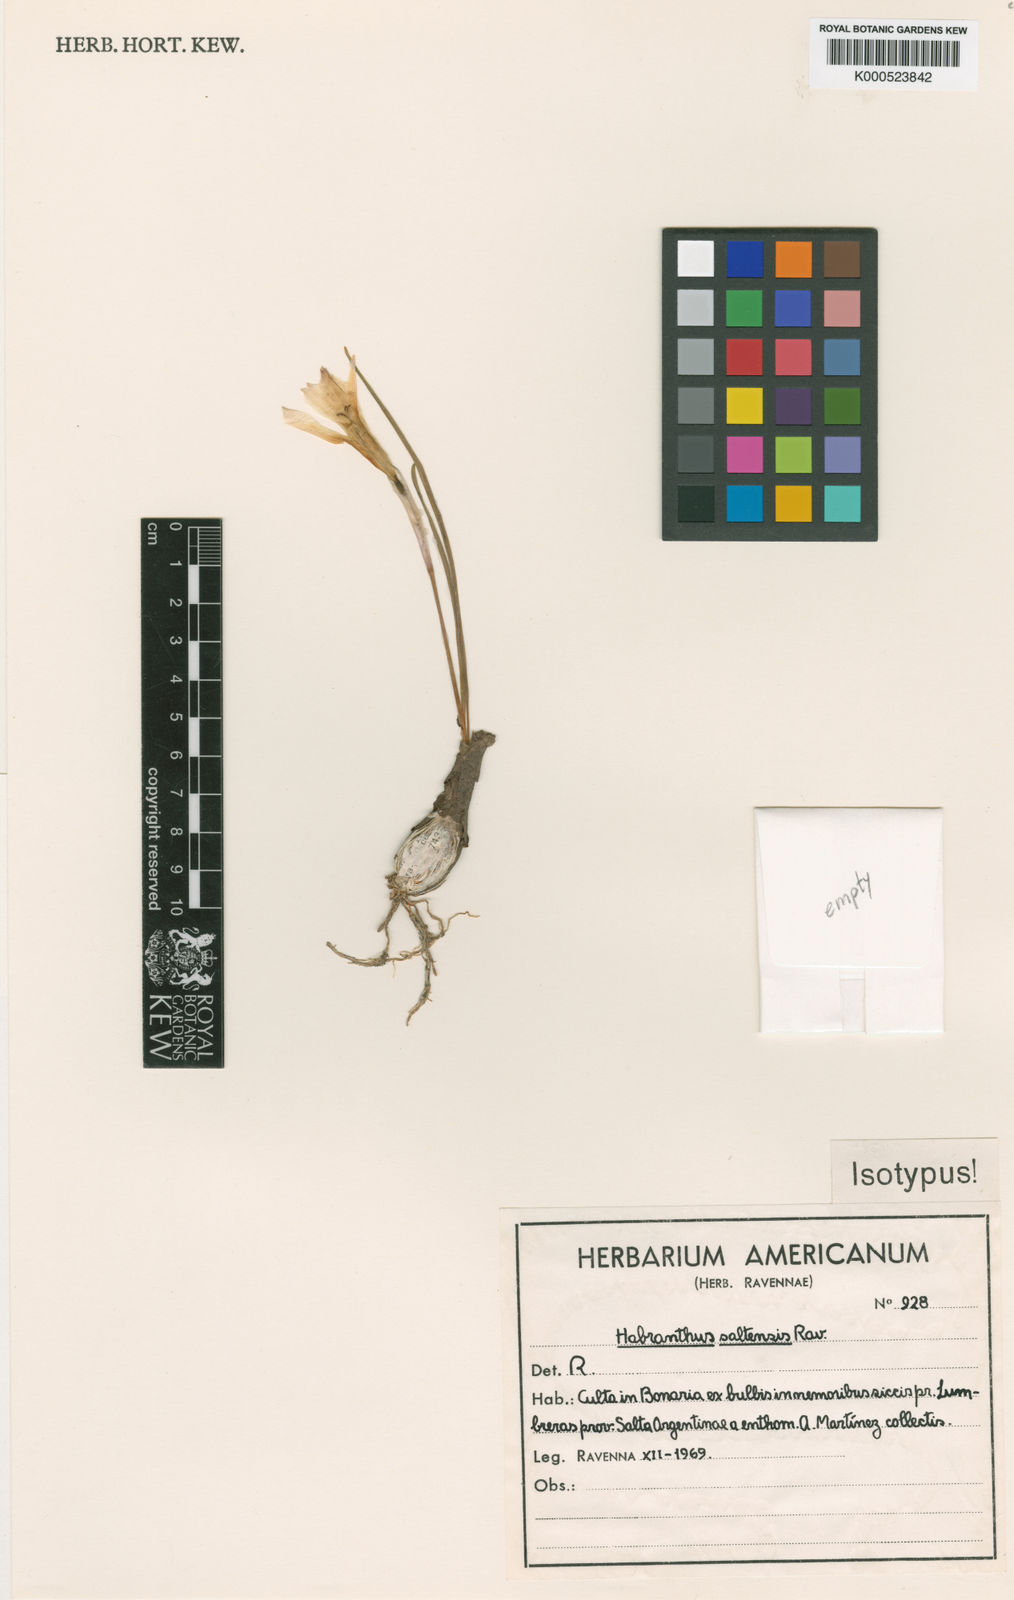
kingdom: Plantae
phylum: Tracheophyta
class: Liliopsida
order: Asparagales
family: Amaryllidaceae
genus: Zephyranthes
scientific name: Zephyranthes saltensis
